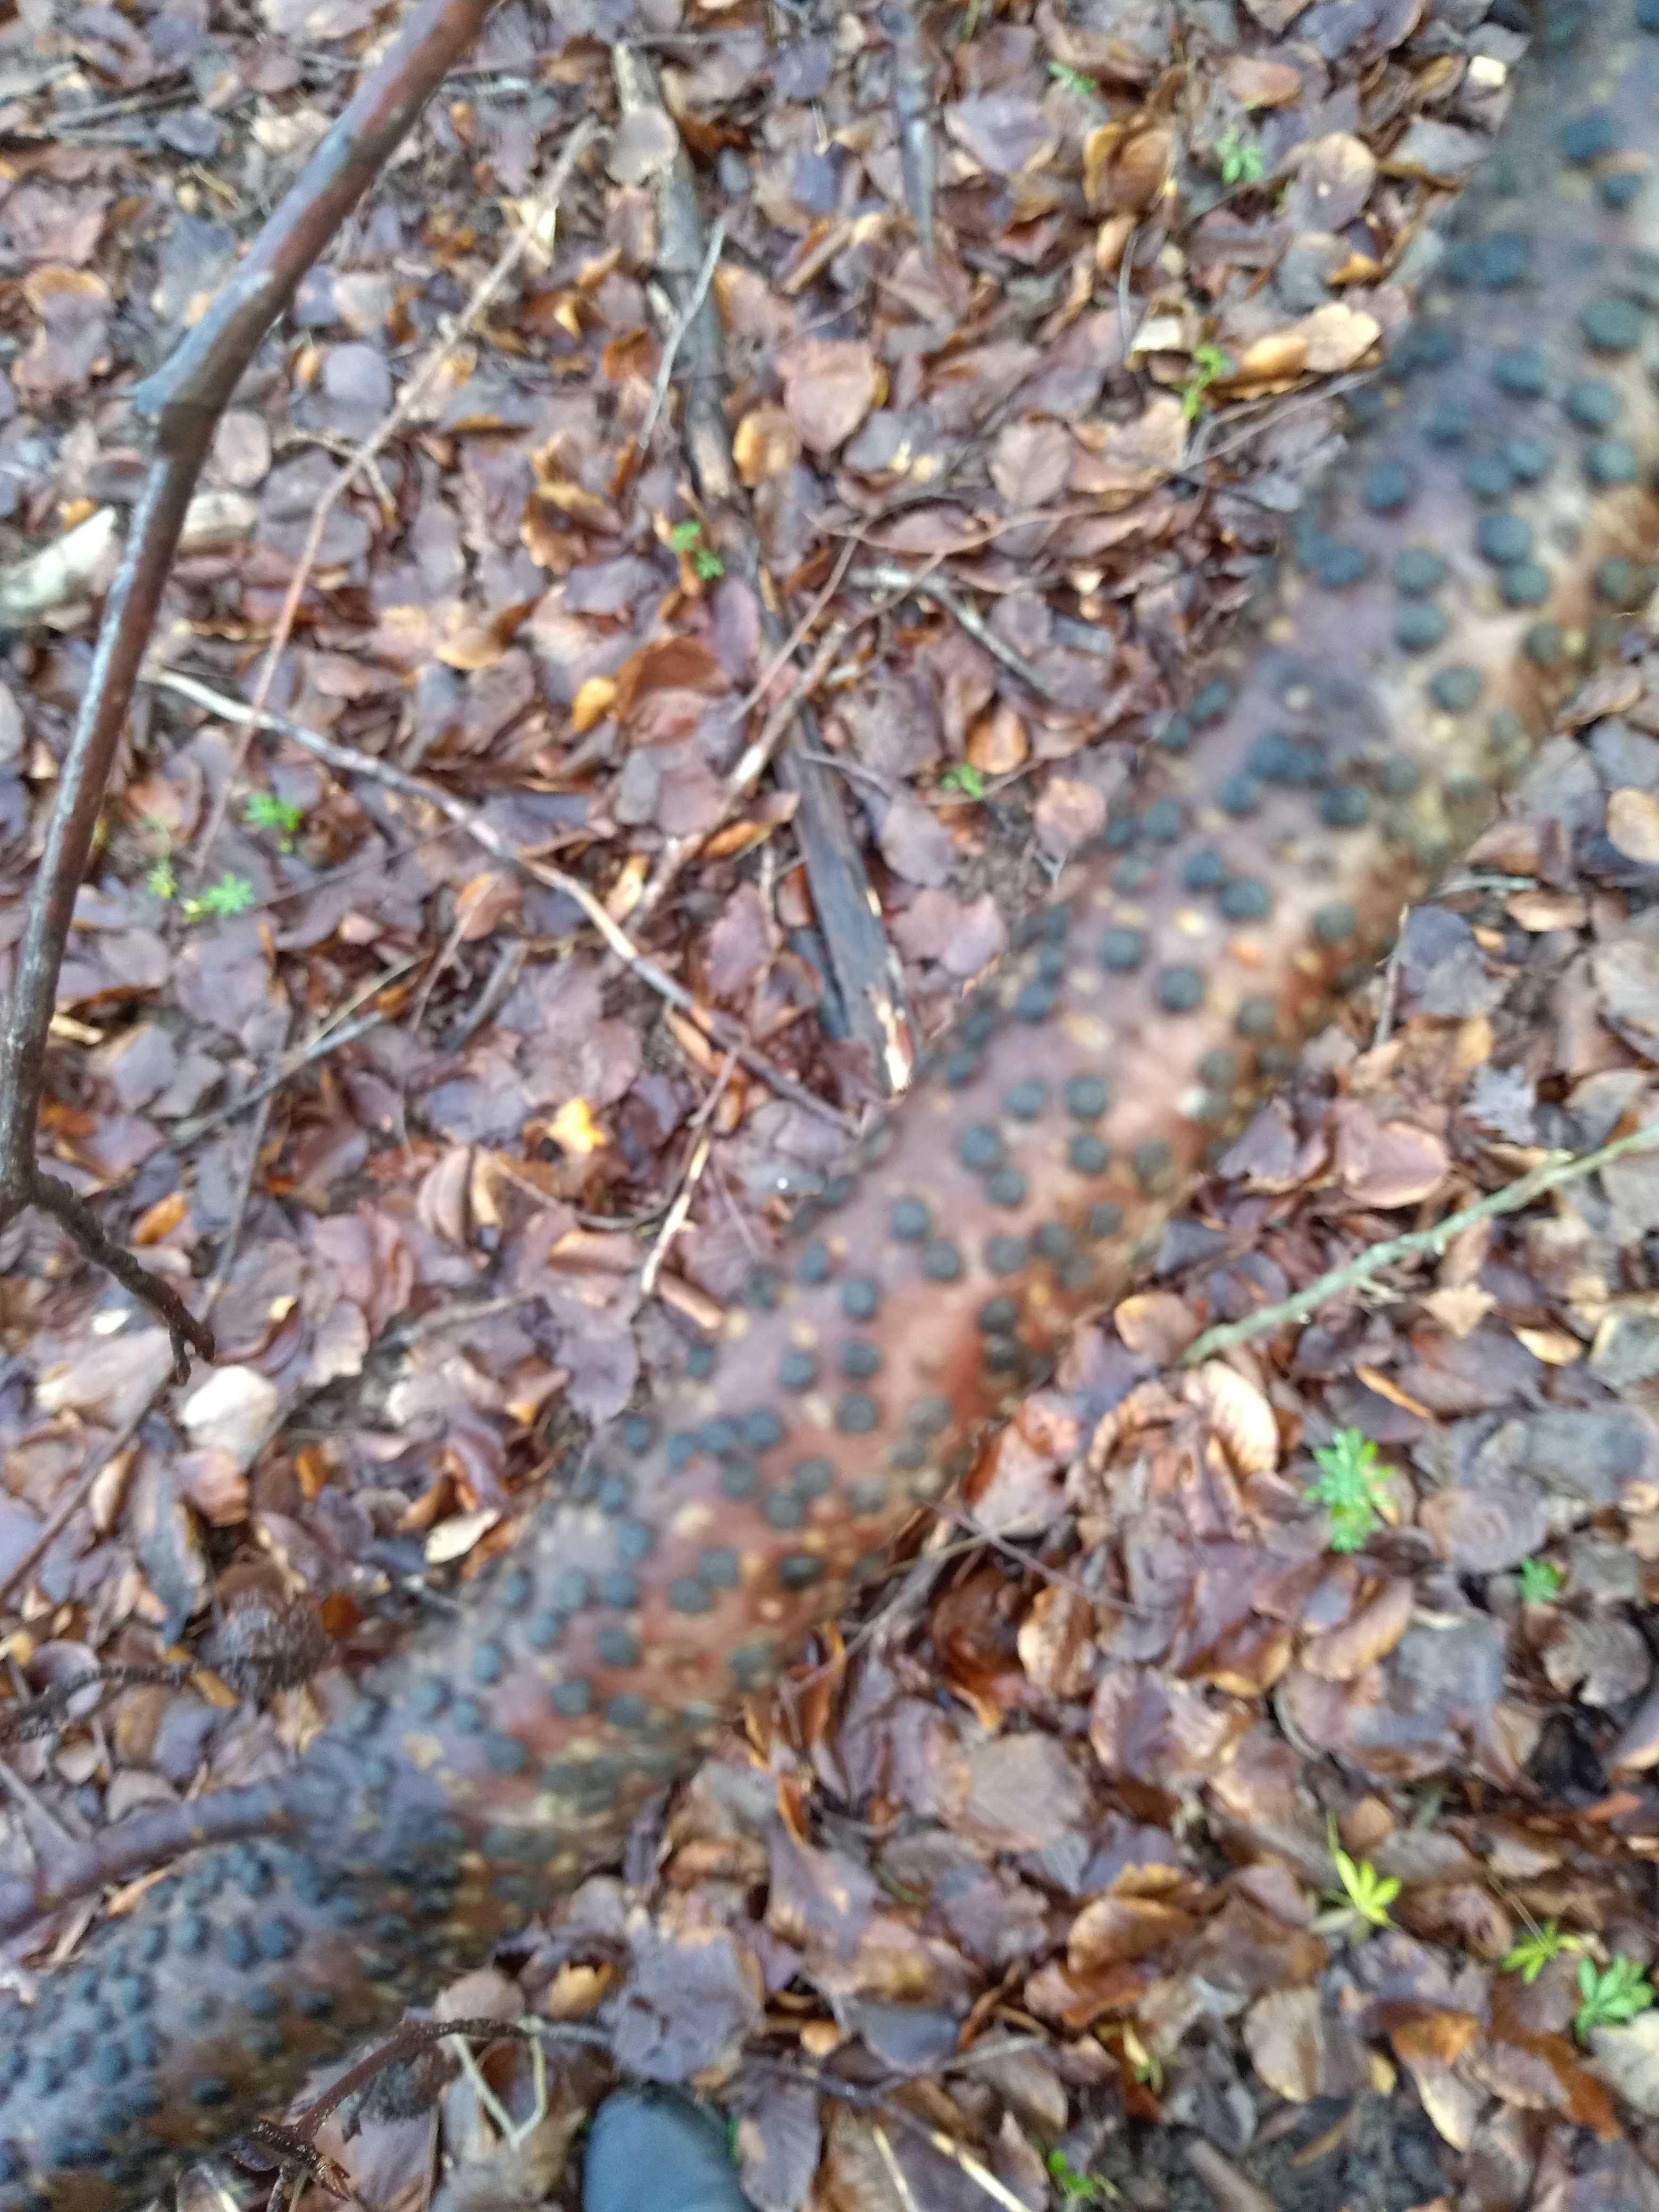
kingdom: Fungi
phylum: Ascomycota
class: Sordariomycetes
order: Xylariales
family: Diatrypaceae
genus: Diatrype
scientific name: Diatrype disciformis
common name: kant-kulskorpe
